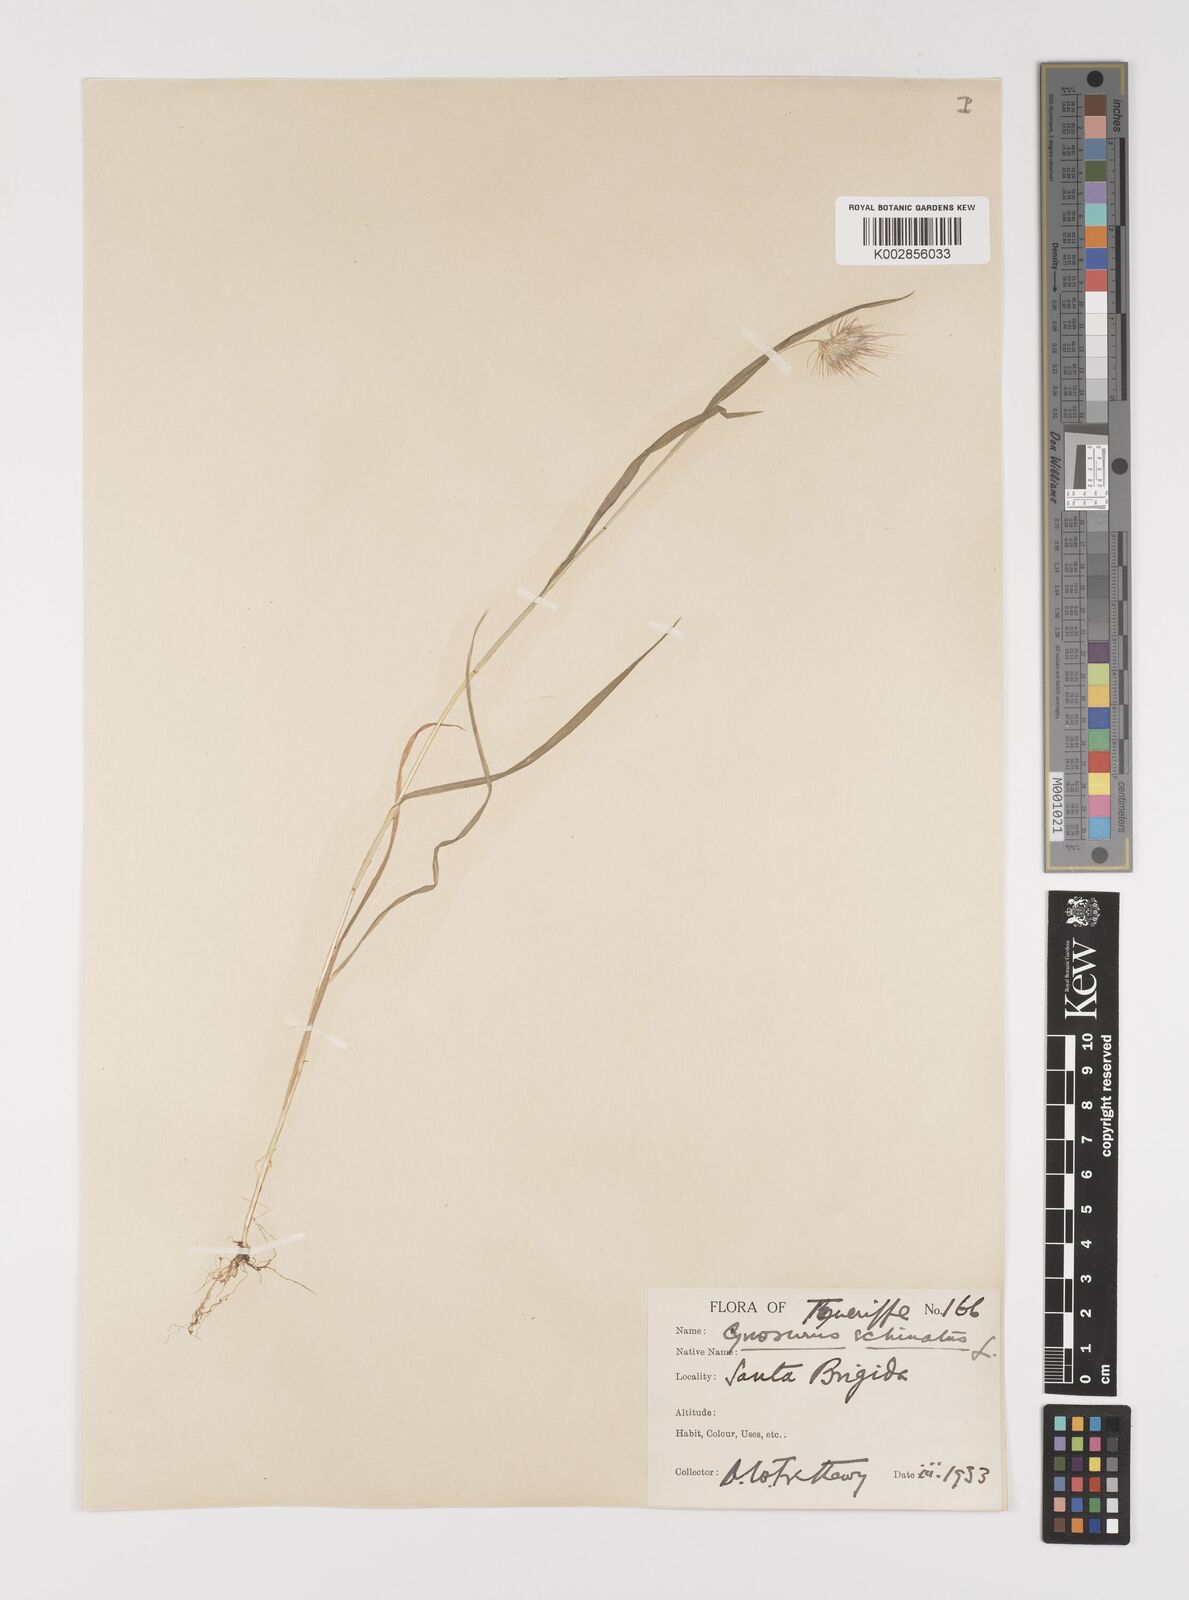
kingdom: Plantae
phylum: Tracheophyta
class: Liliopsida
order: Poales
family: Poaceae
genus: Cynosurus
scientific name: Cynosurus echinatus
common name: Rough dog's-tail
